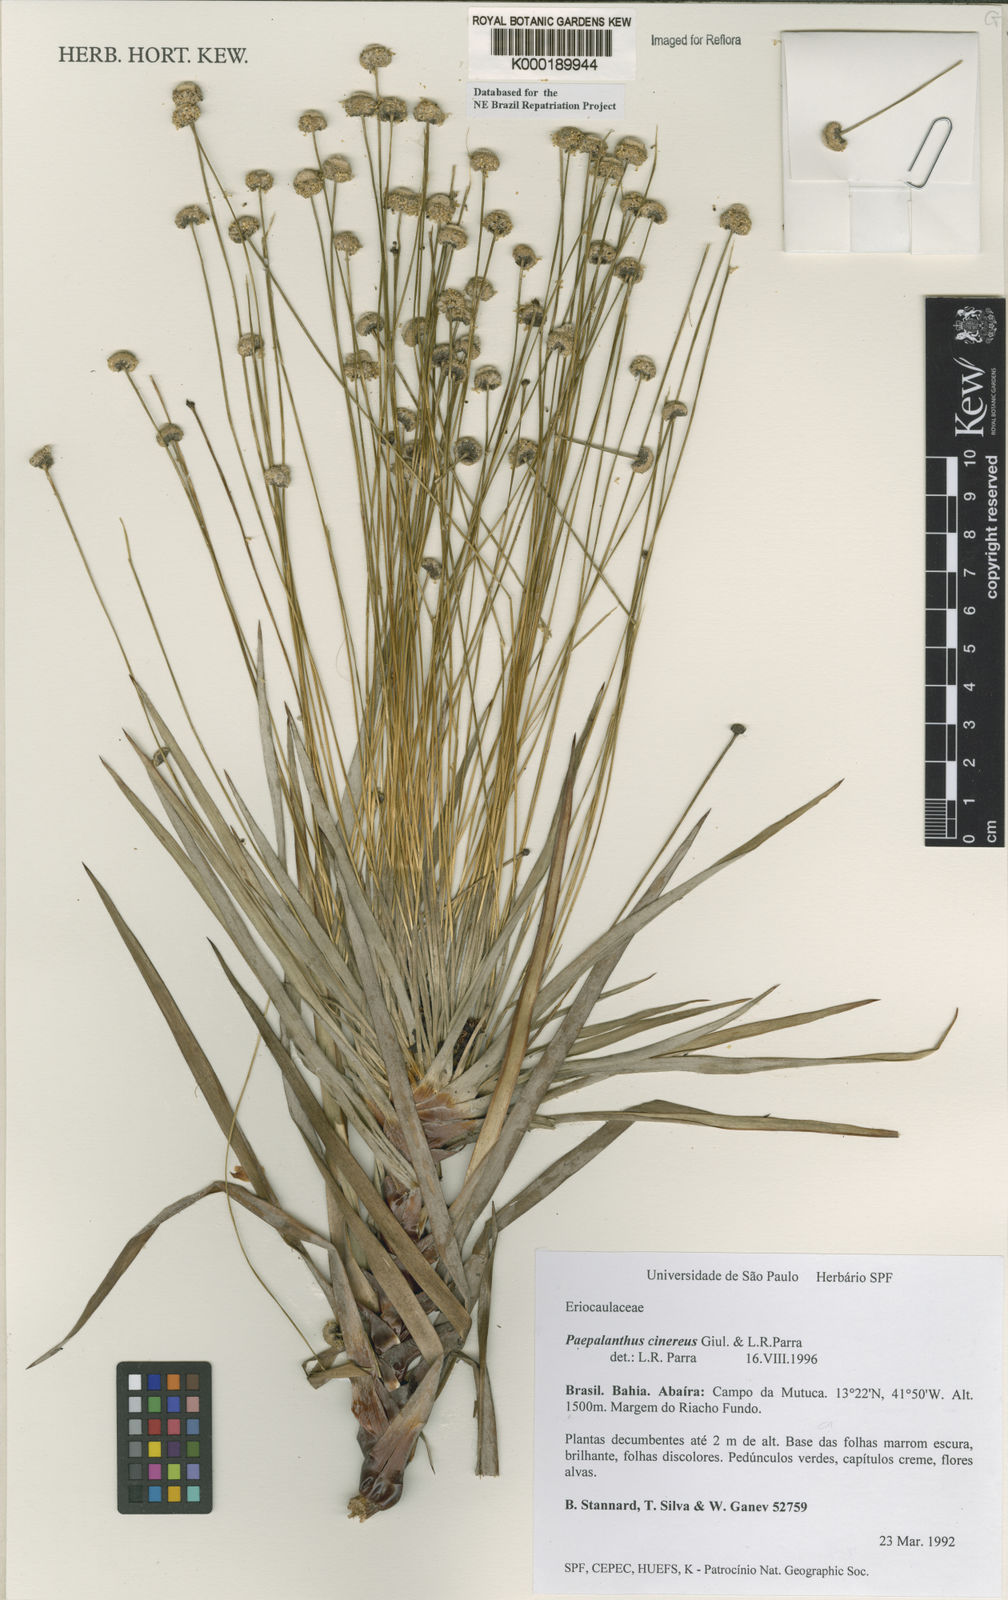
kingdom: Plantae
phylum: Tracheophyta
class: Liliopsida
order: Poales
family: Eriocaulaceae
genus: Paepalanthus
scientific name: Paepalanthus cinereus
